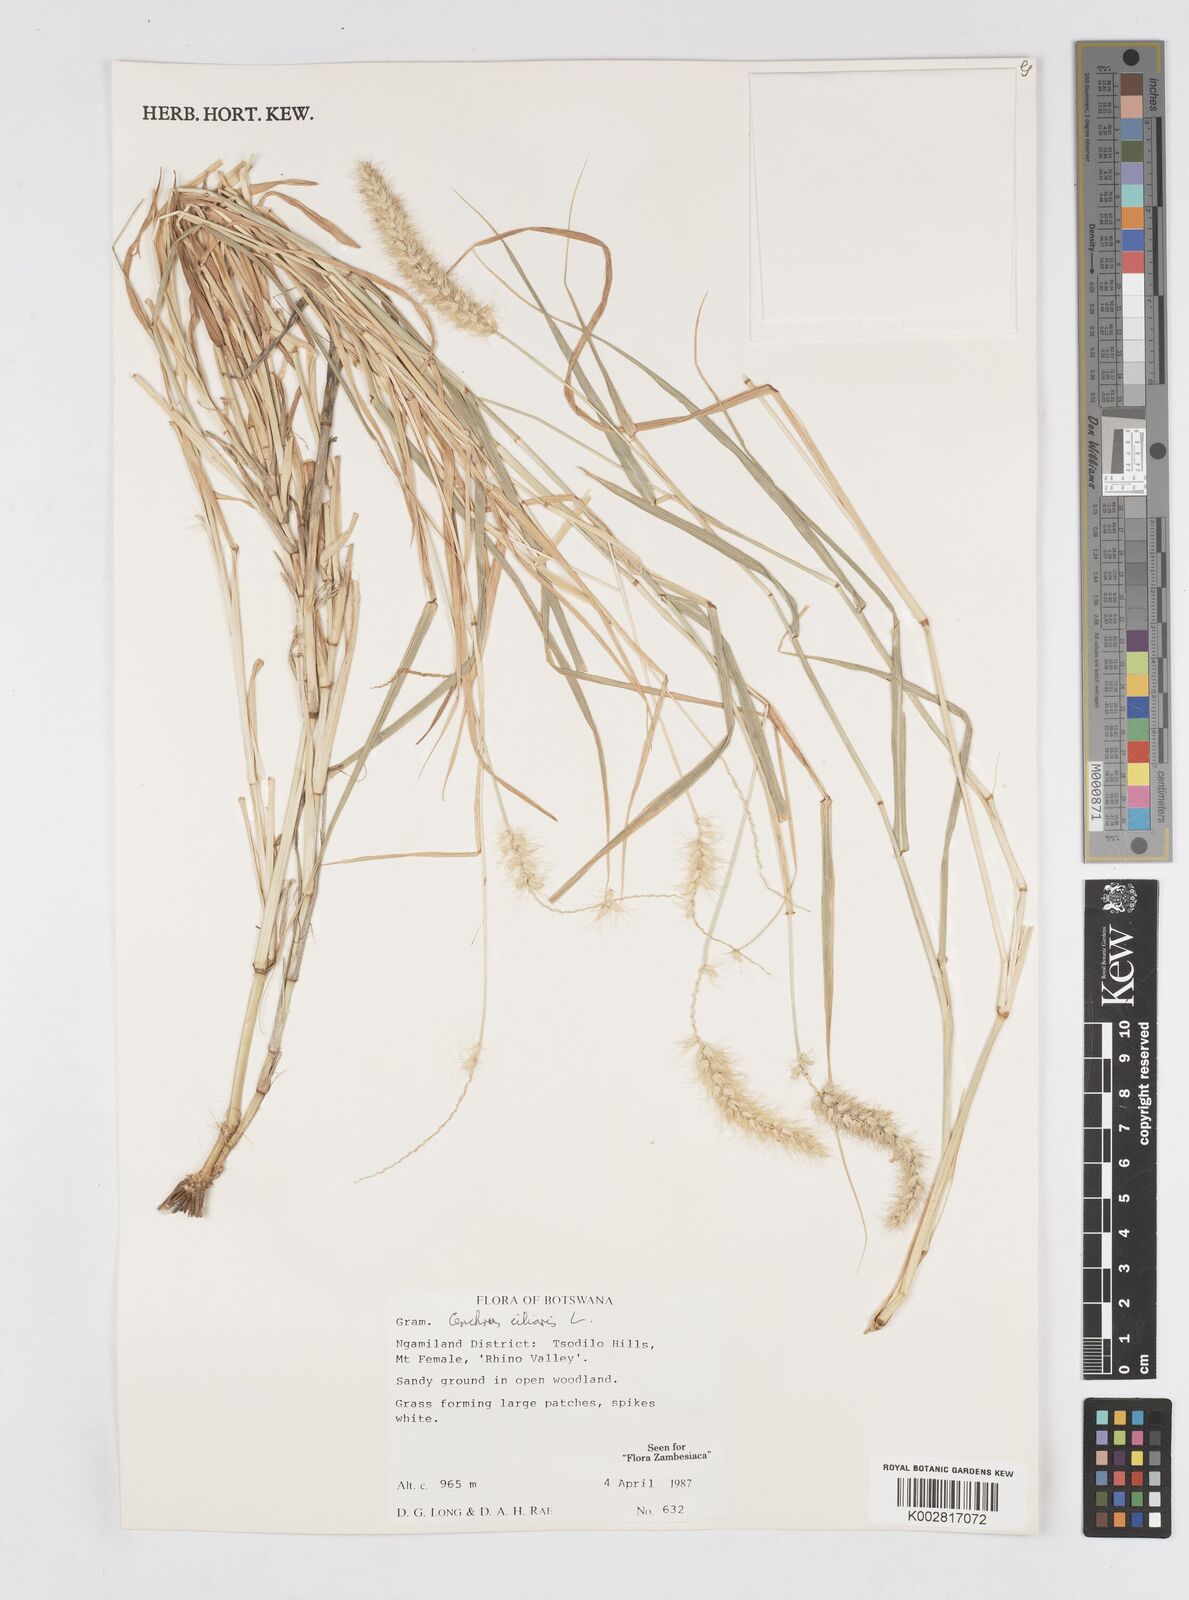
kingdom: Plantae
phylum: Tracheophyta
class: Liliopsida
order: Poales
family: Poaceae
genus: Cenchrus
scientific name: Cenchrus ciliaris
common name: Buffelgrass
